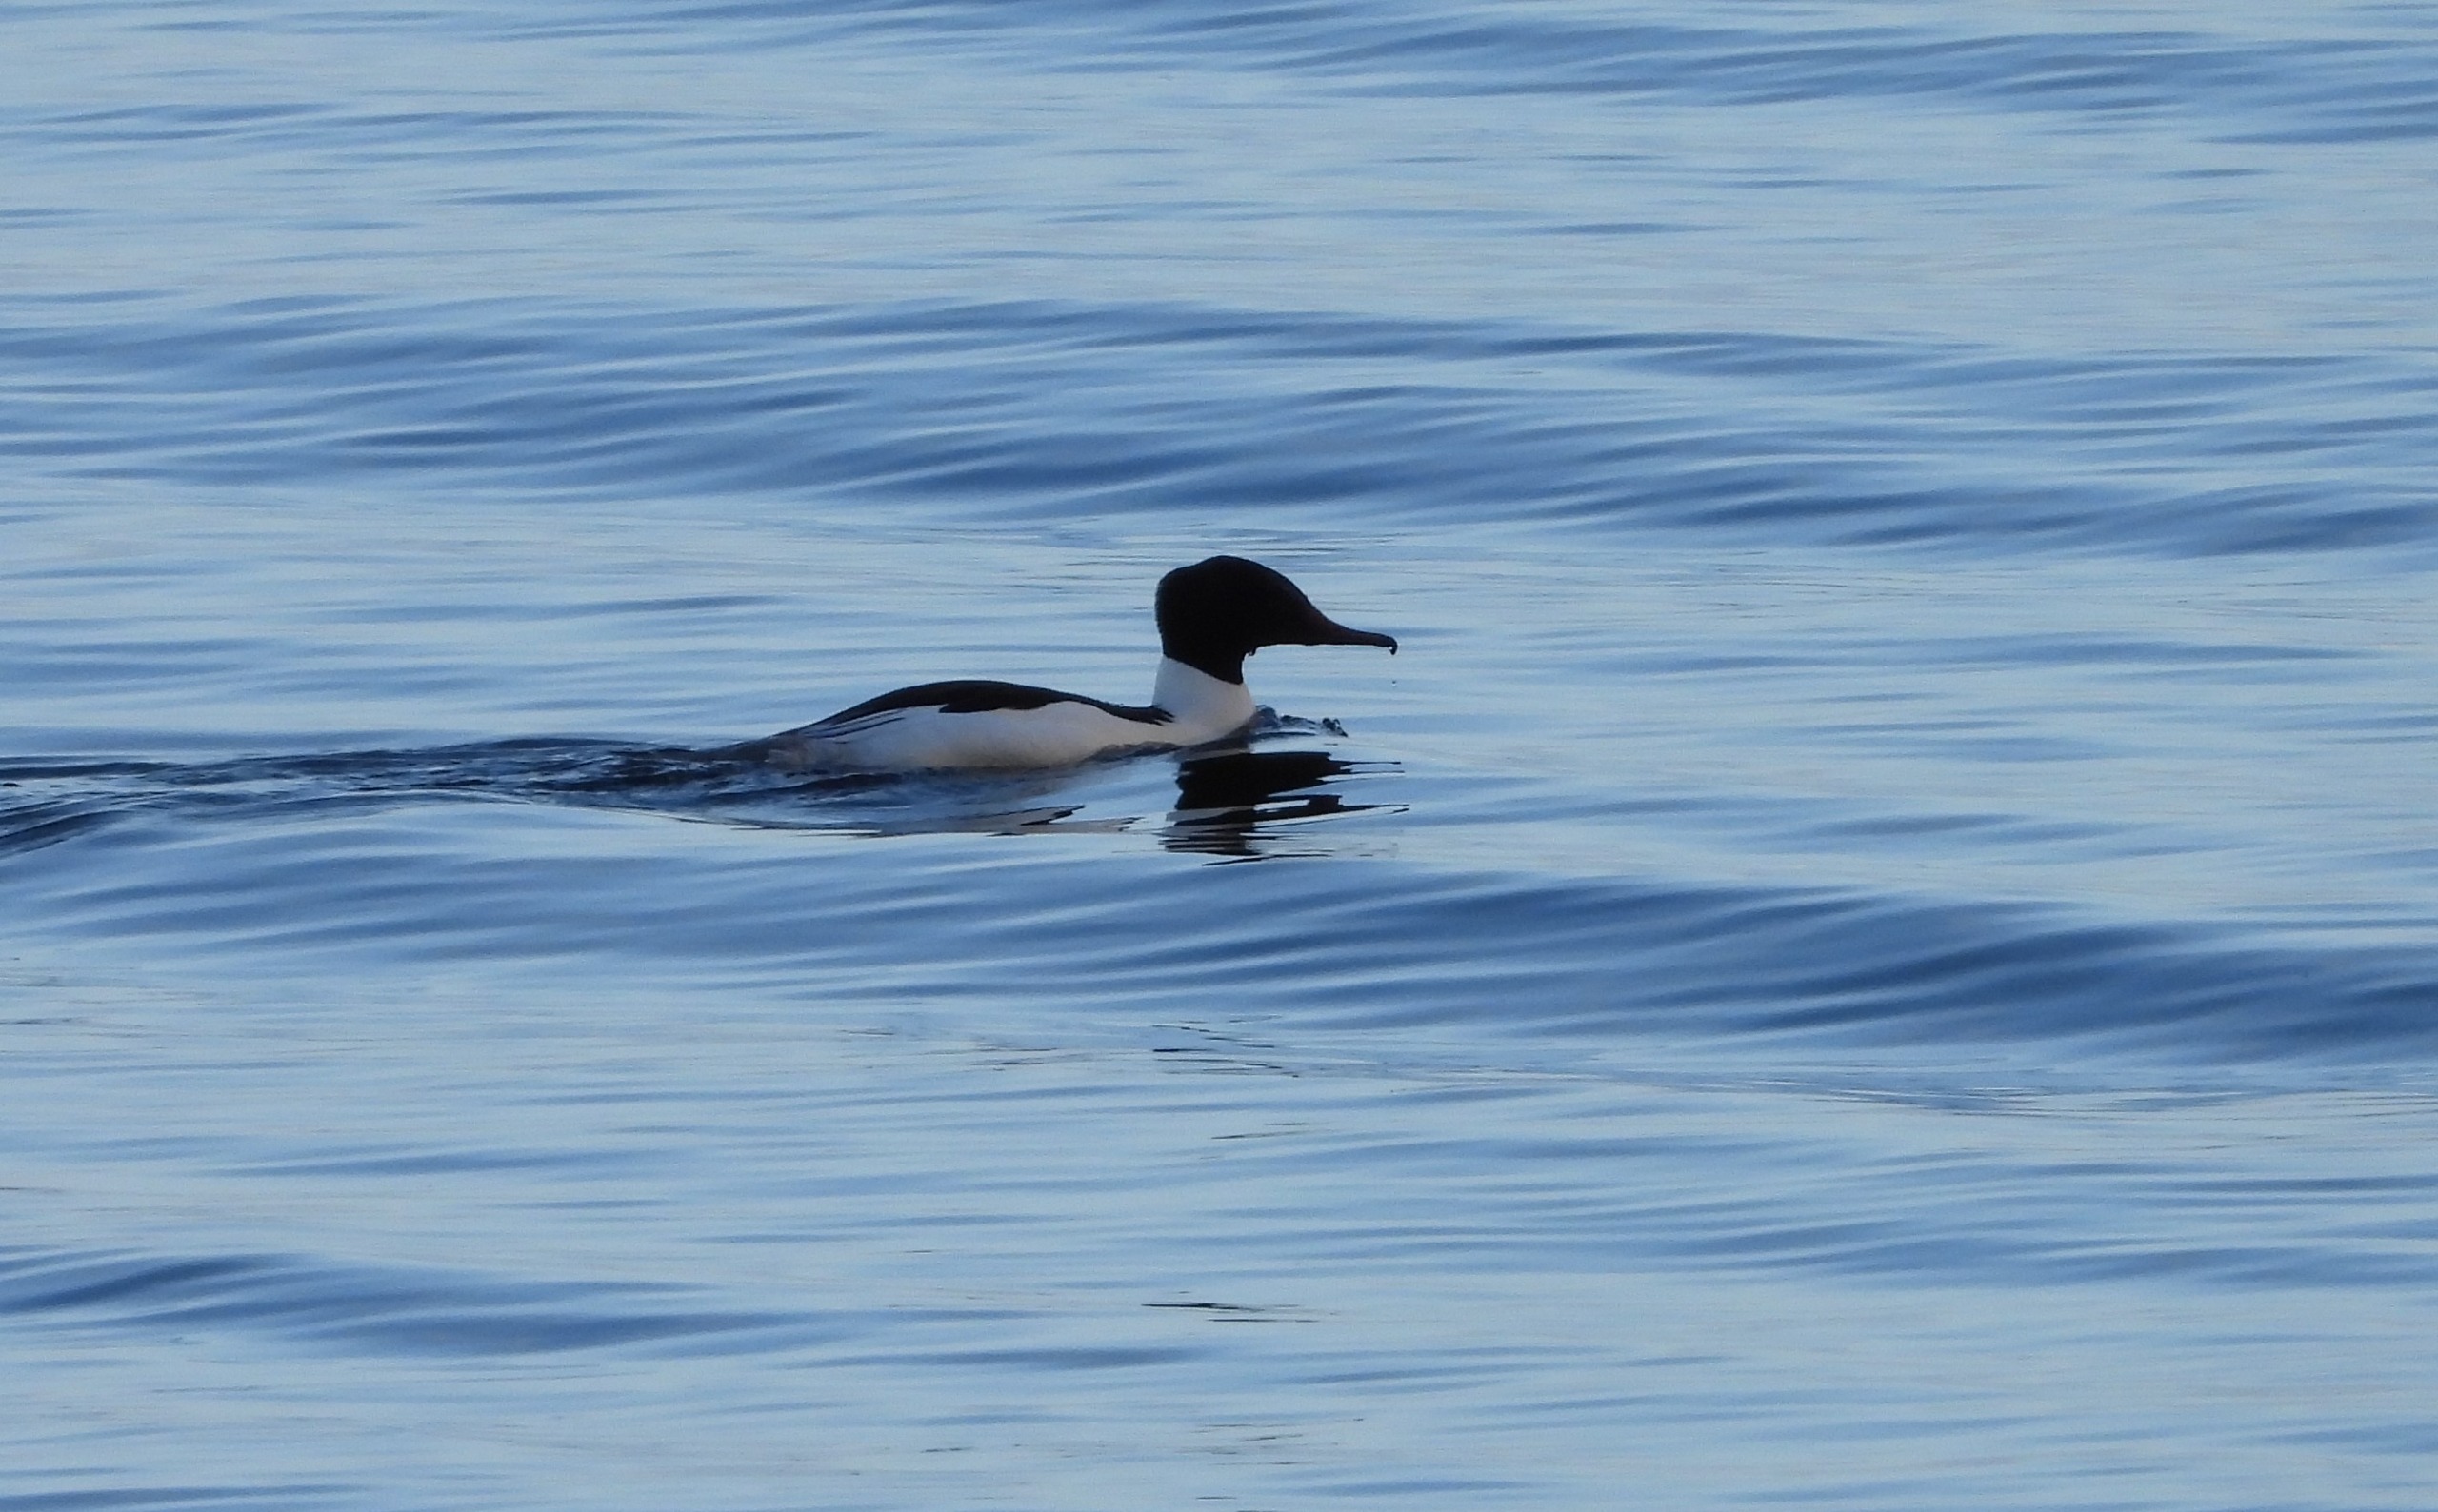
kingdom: Animalia
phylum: Chordata
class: Aves
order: Anseriformes
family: Anatidae
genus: Mergus
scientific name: Mergus merganser
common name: Stor skallesluger
